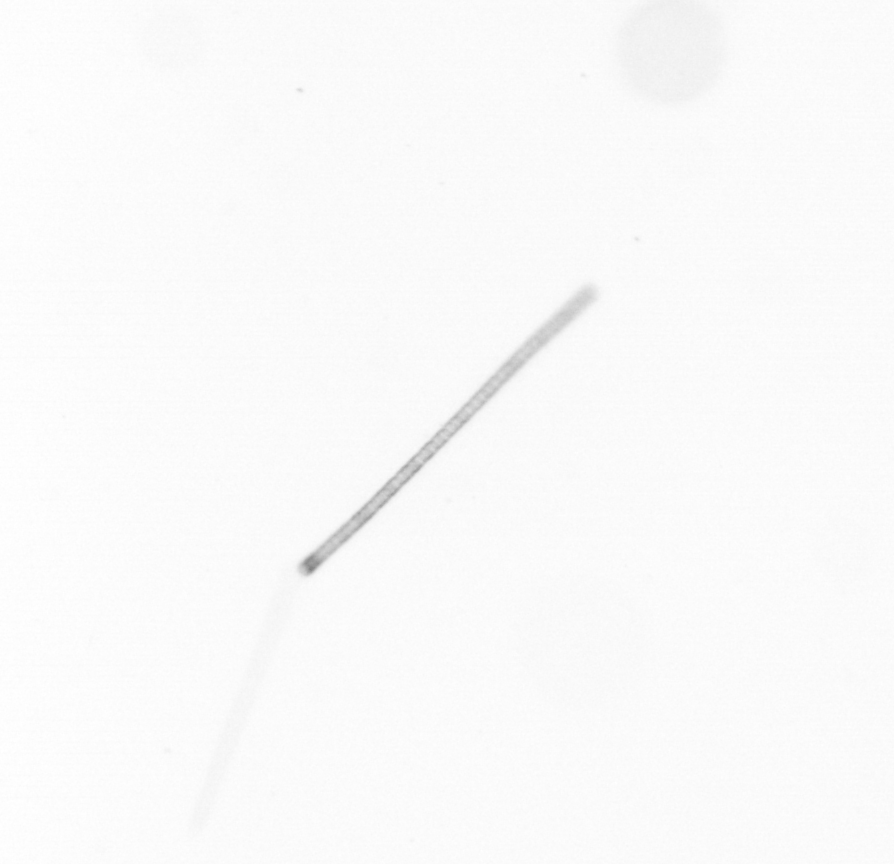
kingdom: Chromista
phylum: Ochrophyta
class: Bacillariophyceae
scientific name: Bacillariophyceae
